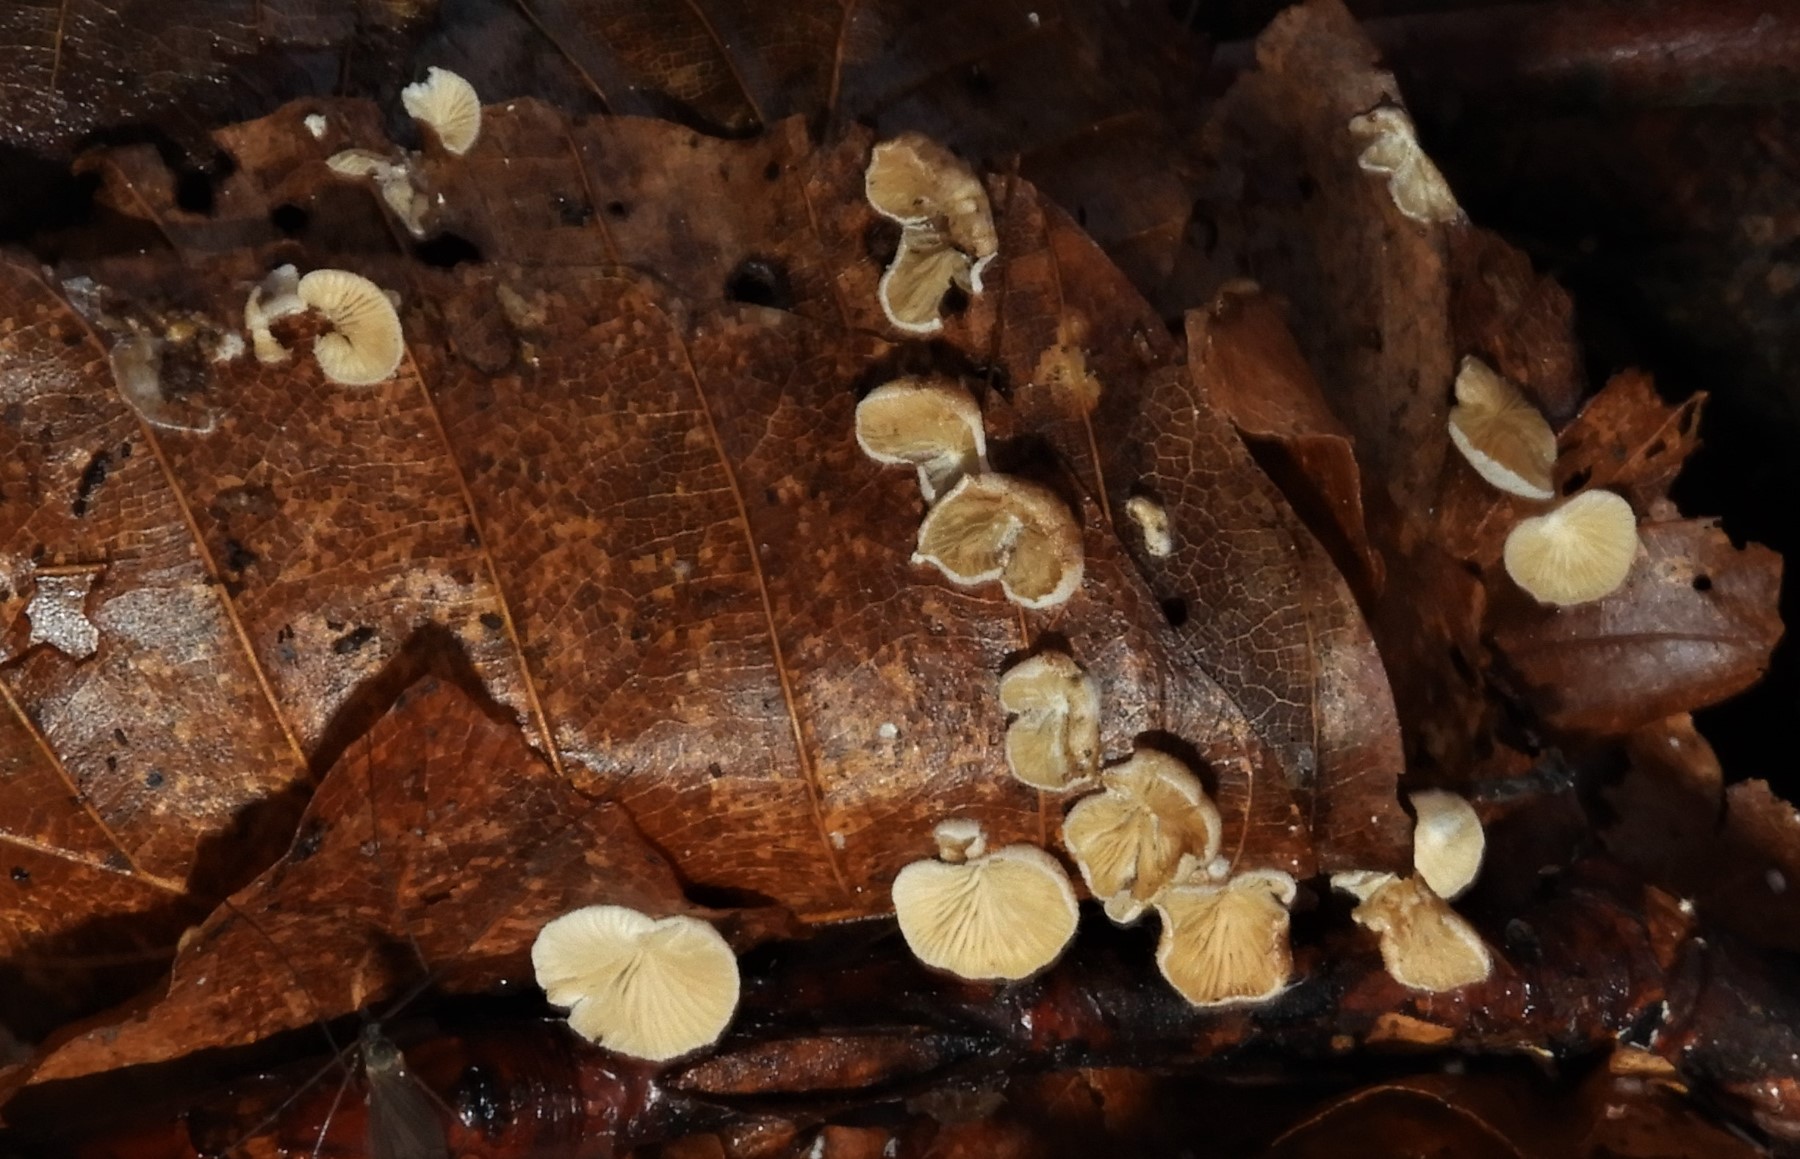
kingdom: Fungi
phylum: Basidiomycota
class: Agaricomycetes
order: Agaricales
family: Crepidotaceae
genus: Crepidotus
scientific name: Crepidotus epibryus
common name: førne-muslingesvamp
